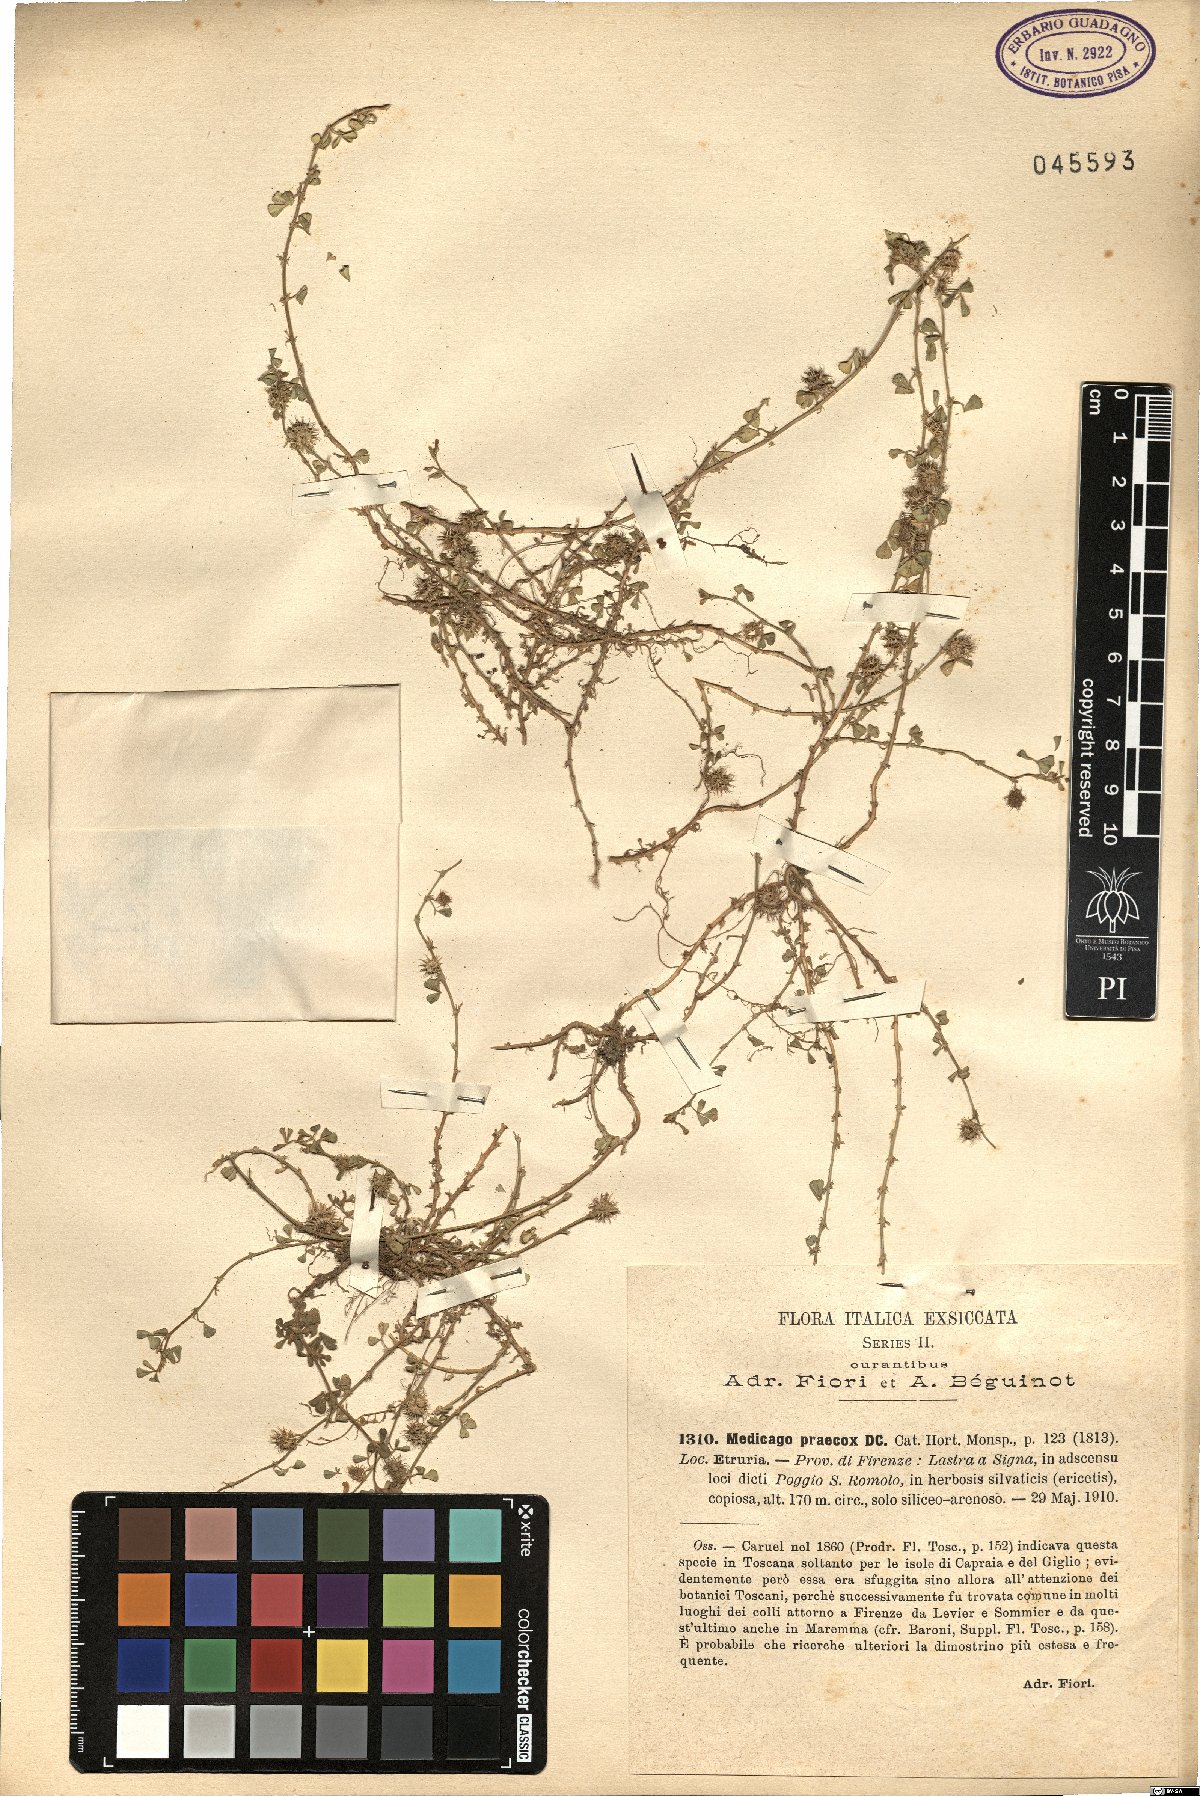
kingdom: Plantae
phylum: Tracheophyta
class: Magnoliopsida
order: Fabales
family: Fabaceae
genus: Medicago
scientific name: Medicago praecox
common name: Early medick
